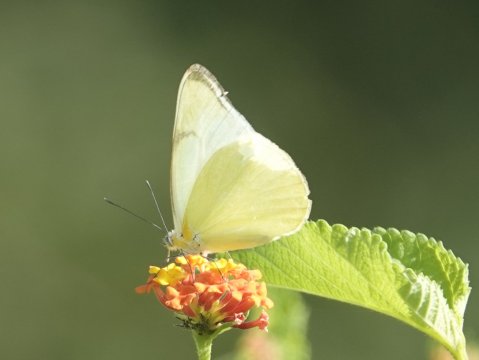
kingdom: Animalia
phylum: Arthropoda
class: Insecta
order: Lepidoptera
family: Pieridae
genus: Melete
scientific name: Melete polyhymnia
